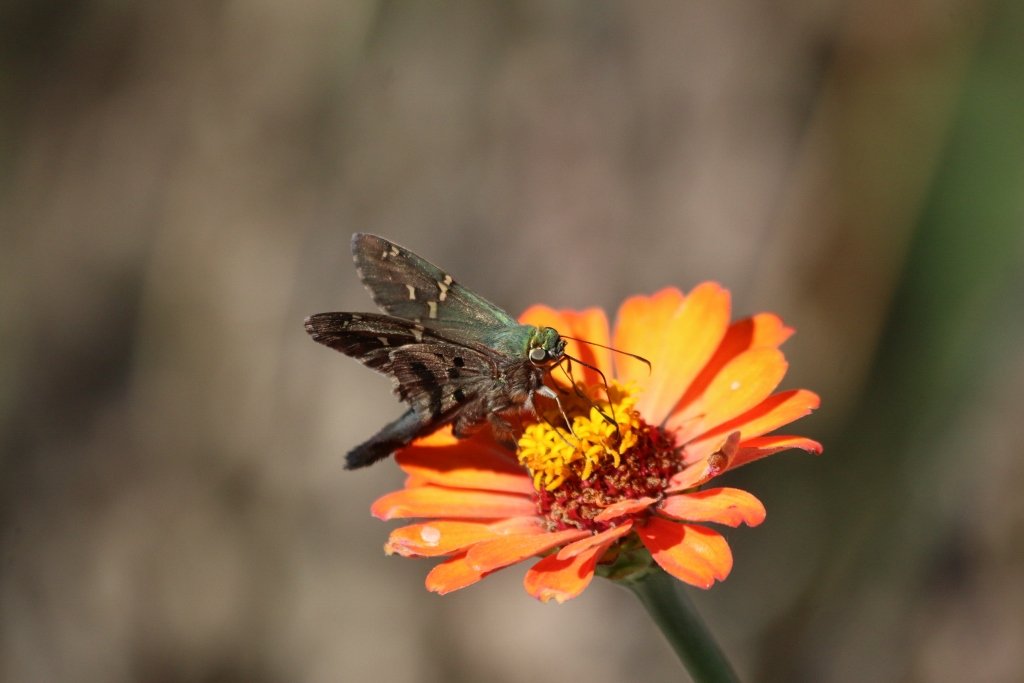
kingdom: Animalia
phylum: Arthropoda
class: Insecta
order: Lepidoptera
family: Hesperiidae
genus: Urbanus
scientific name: Urbanus proteus
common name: Long-tailed Skipper
